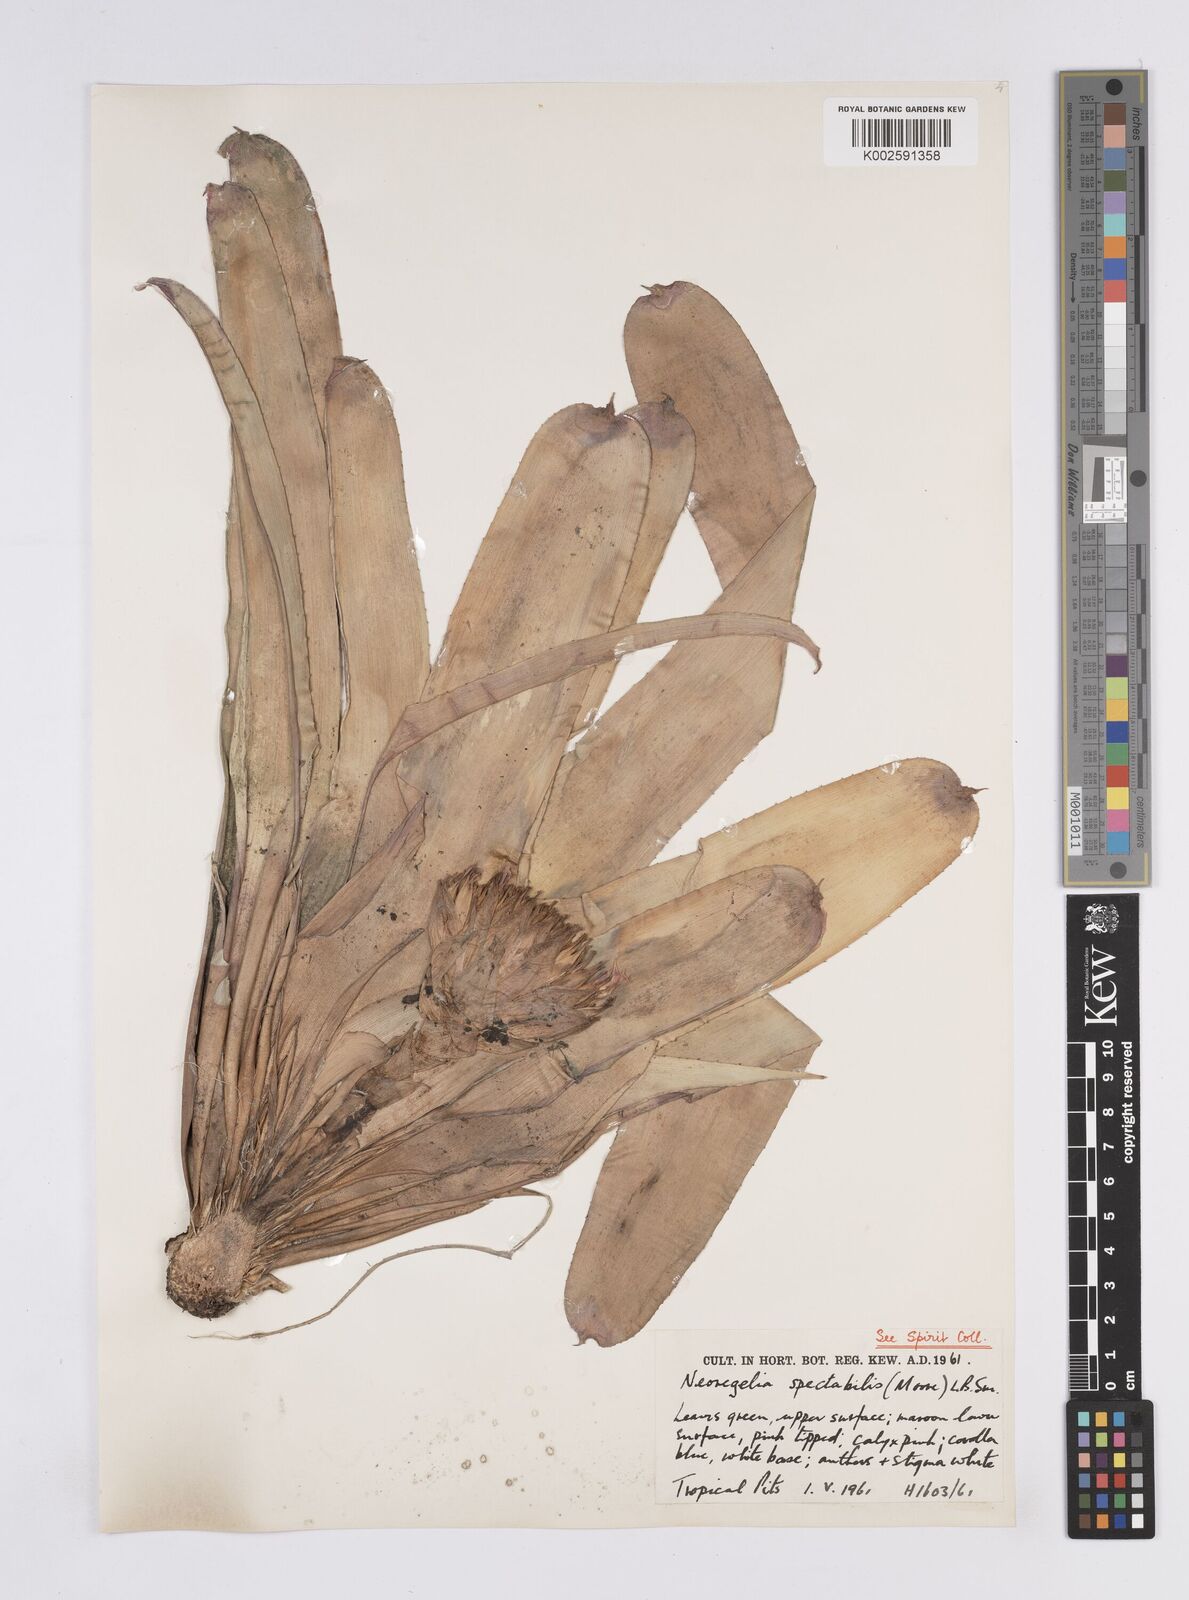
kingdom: Plantae
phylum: Tracheophyta
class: Liliopsida
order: Poales
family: Bromeliaceae
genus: Neoregelia
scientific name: Neoregelia spectabilis
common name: Painted-fingernail
